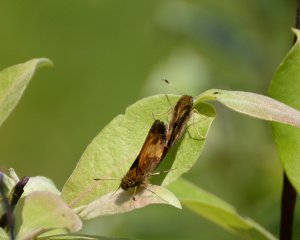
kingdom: Animalia
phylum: Arthropoda
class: Insecta
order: Lepidoptera
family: Hesperiidae
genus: Lon
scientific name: Lon hobomok
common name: Hobomok Skipper
